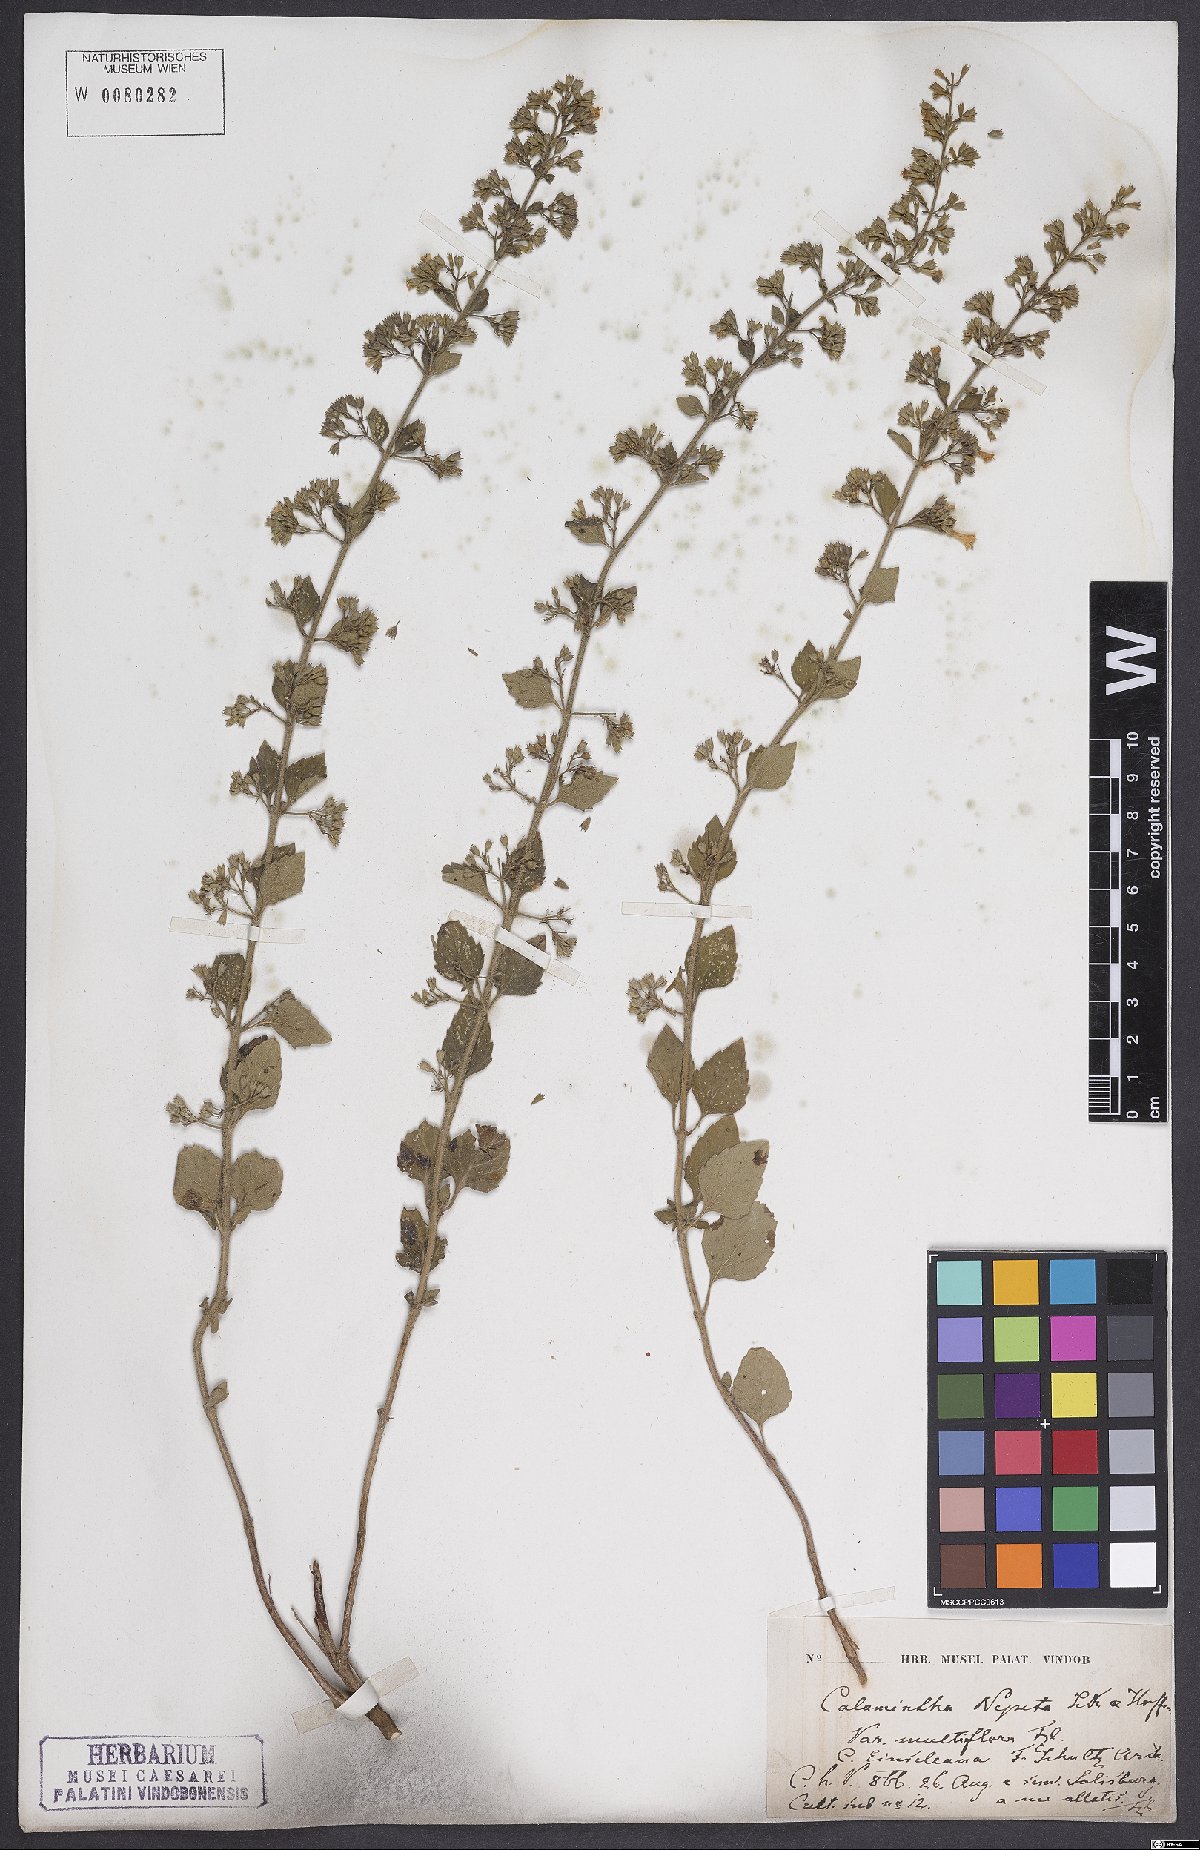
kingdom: Plantae
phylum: Tracheophyta
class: Magnoliopsida
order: Lamiales
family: Lamiaceae
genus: Clinopodium
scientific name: Clinopodium nepeta
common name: Lesser calamint
